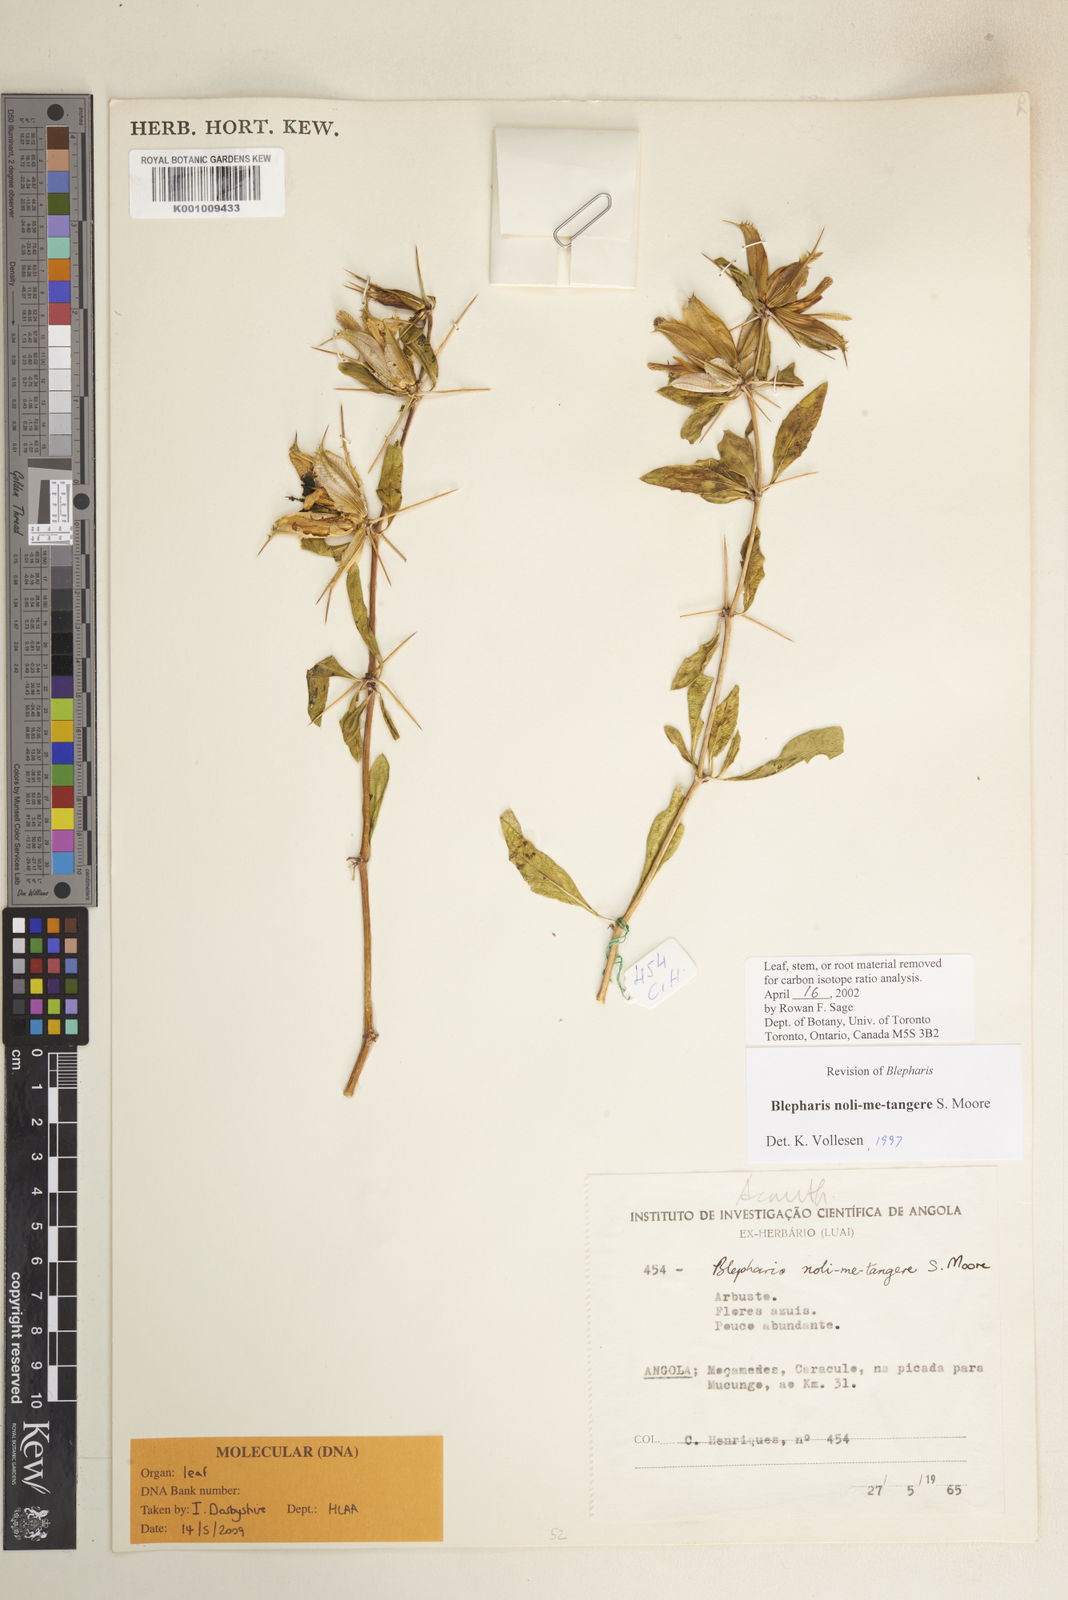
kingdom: Plantae
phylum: Tracheophyta
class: Magnoliopsida
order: Lamiales
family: Acanthaceae
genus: Blepharis
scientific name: Blepharis noli-me-tangere
